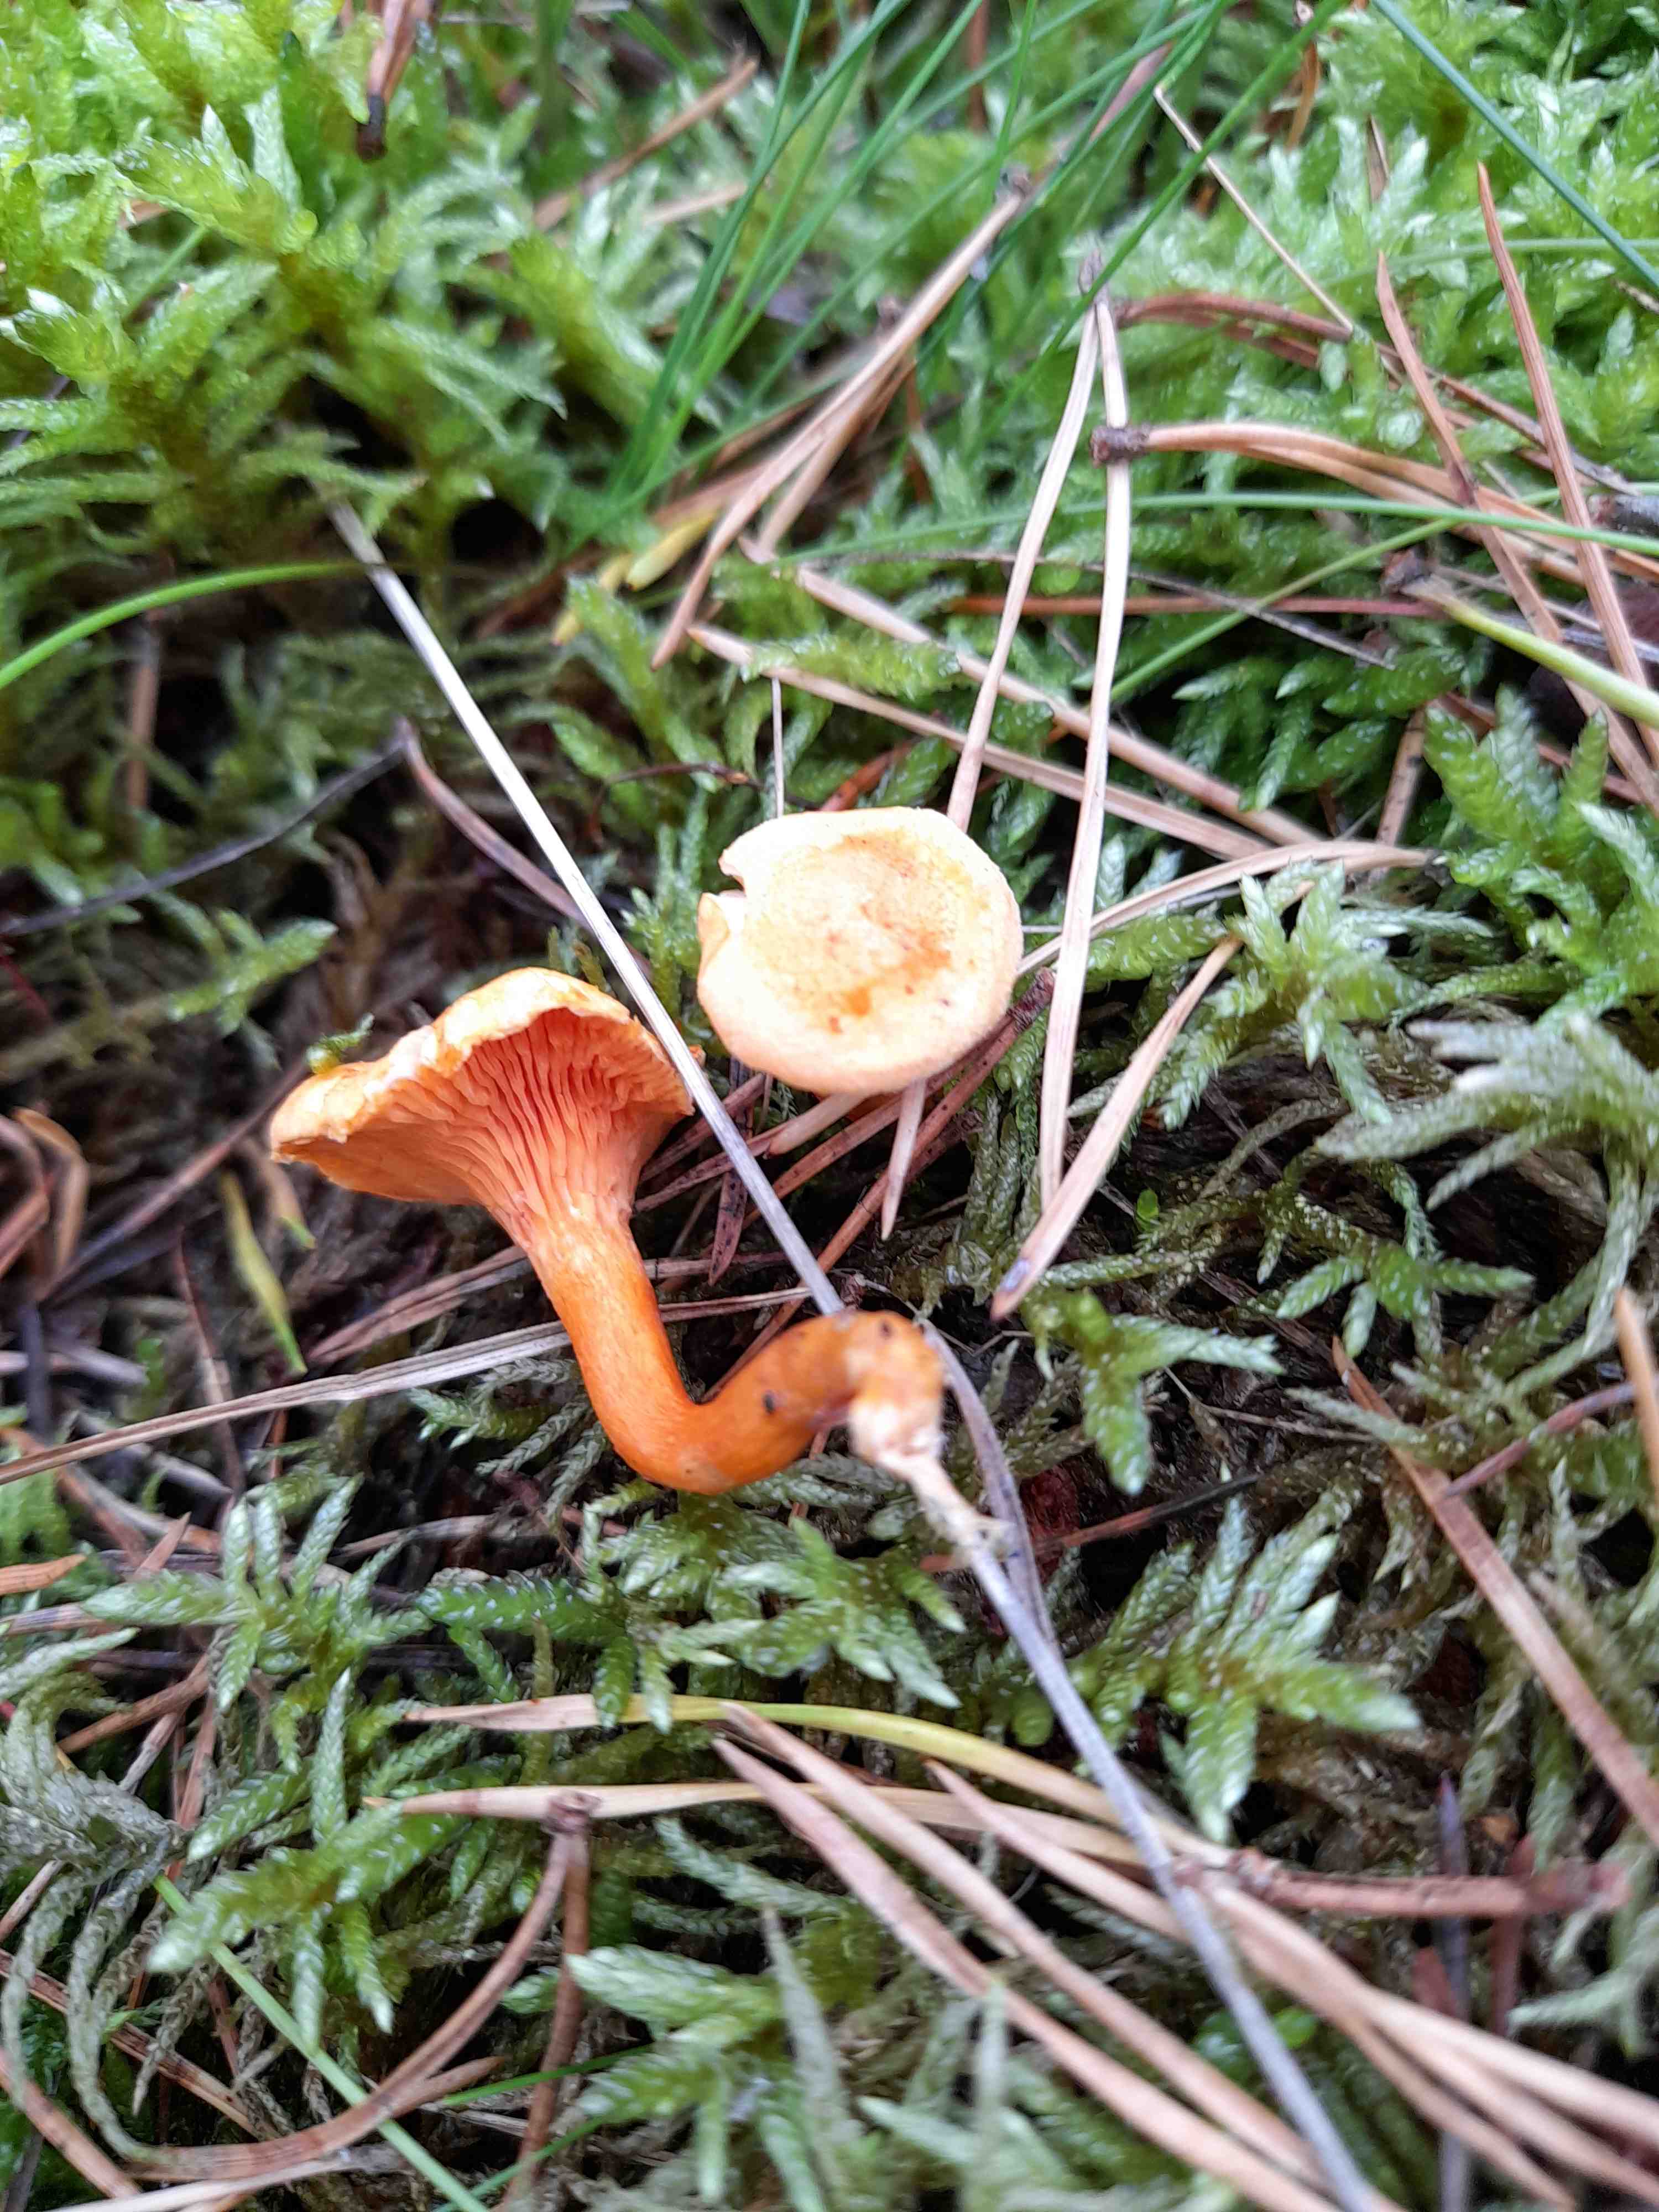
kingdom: Fungi
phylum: Basidiomycota
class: Agaricomycetes
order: Boletales
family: Hygrophoropsidaceae
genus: Hygrophoropsis
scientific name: Hygrophoropsis aurantiaca
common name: almindelig orangekantarel
